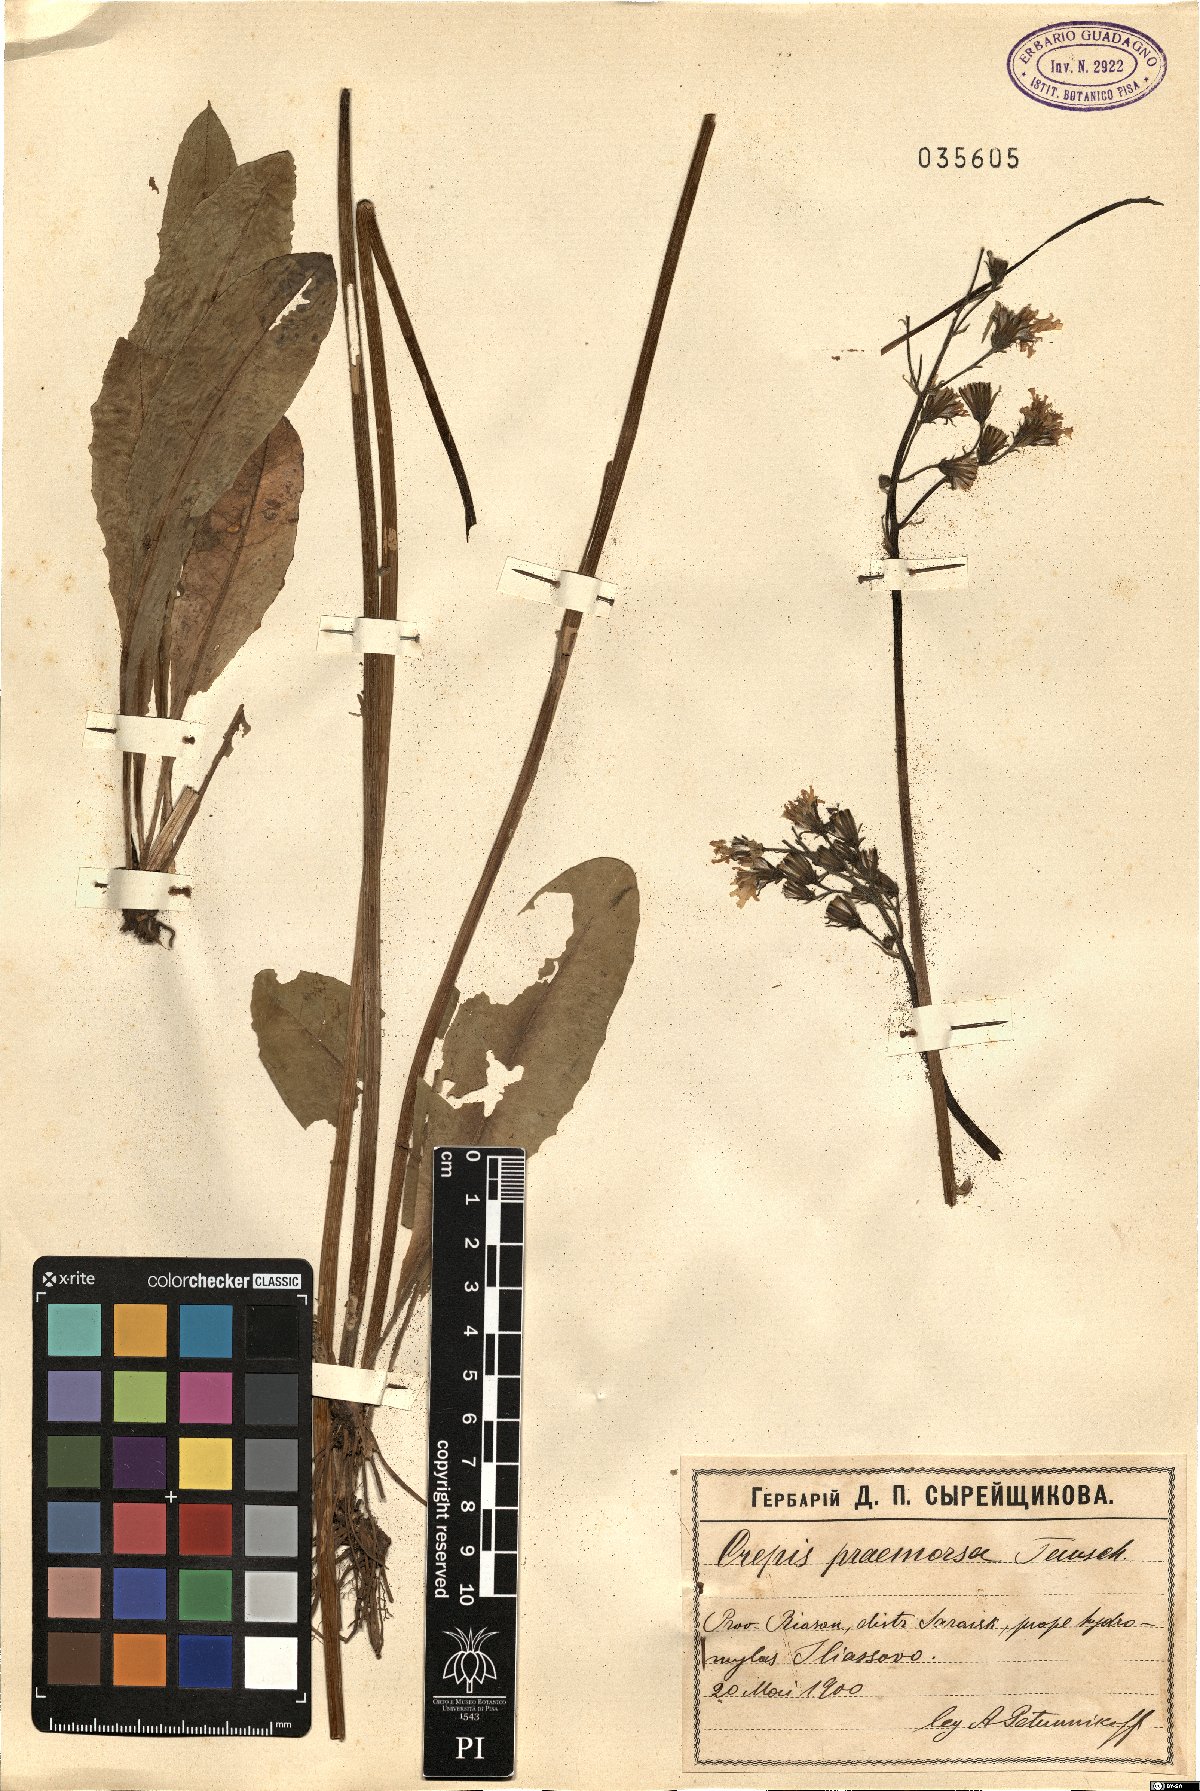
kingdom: Plantae
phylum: Tracheophyta
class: Magnoliopsida
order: Asterales
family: Asteraceae
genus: Crepis
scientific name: Crepis praemorsa
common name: Leafless hawk's-beard
